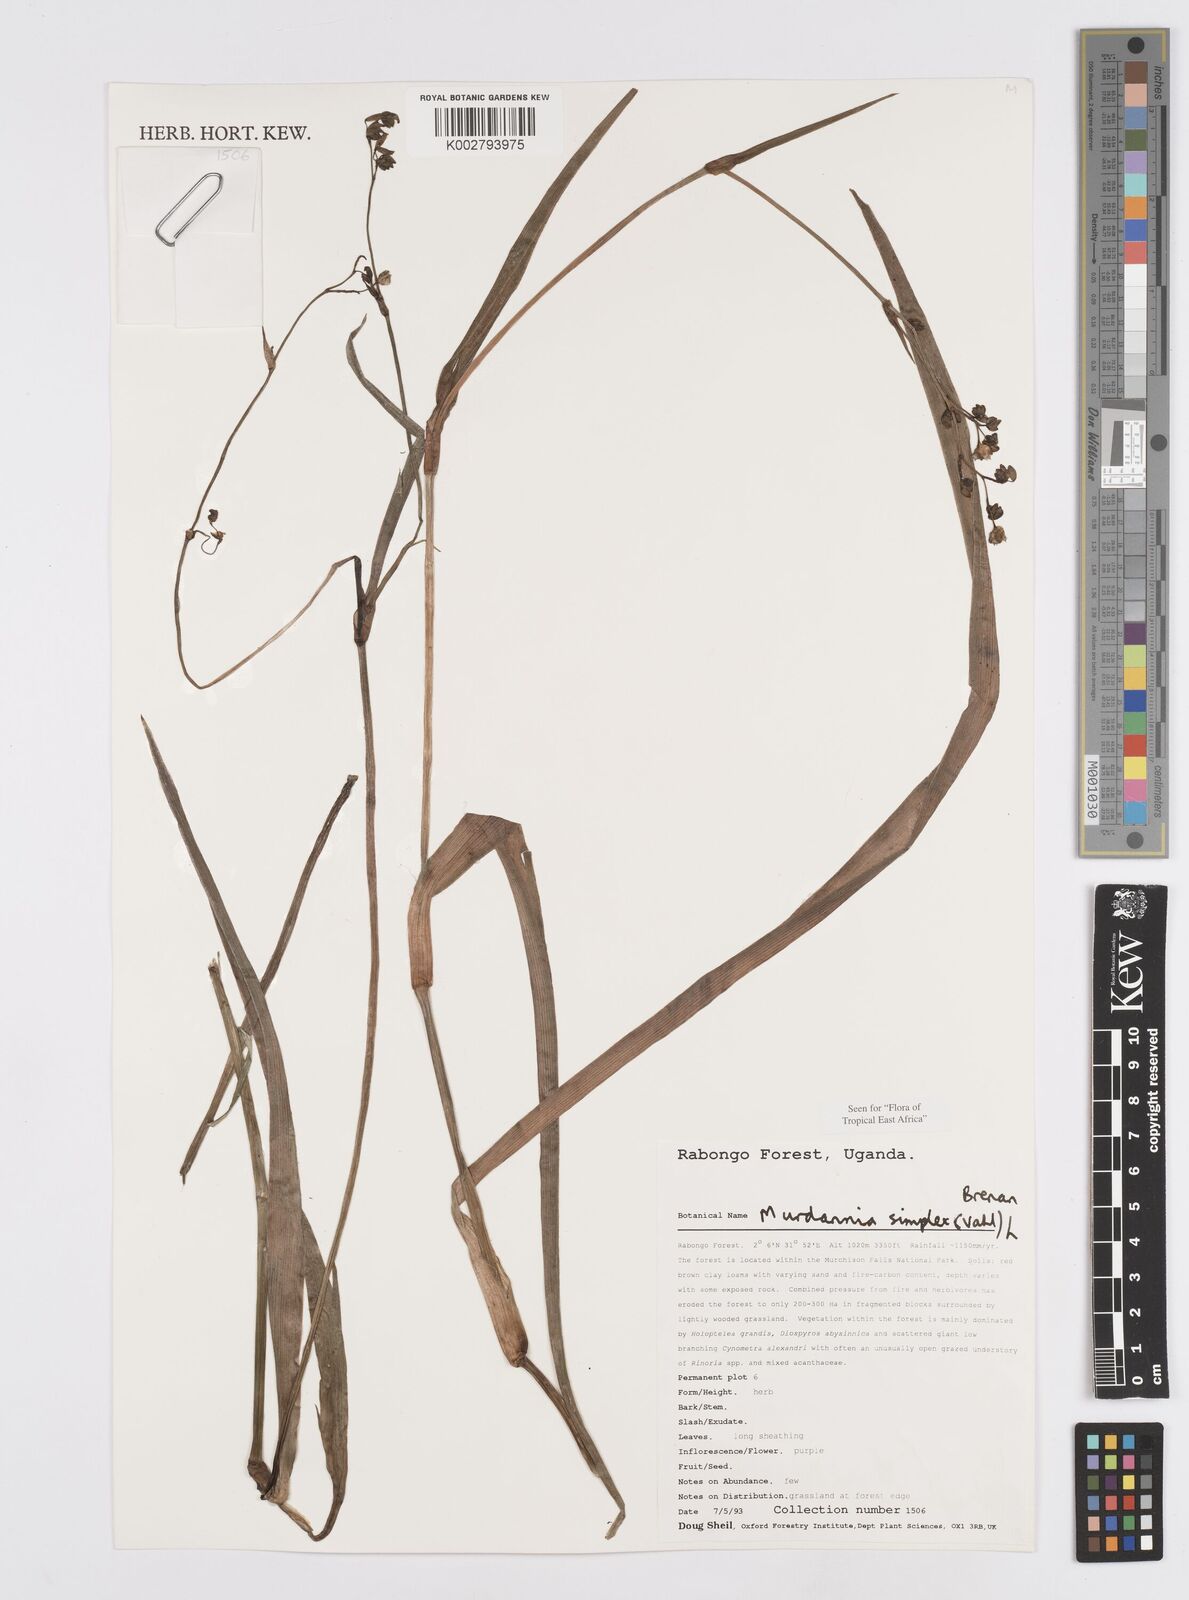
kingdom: Plantae
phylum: Tracheophyta
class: Liliopsida
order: Commelinales
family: Commelinaceae
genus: Murdannia
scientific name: Murdannia simplex
